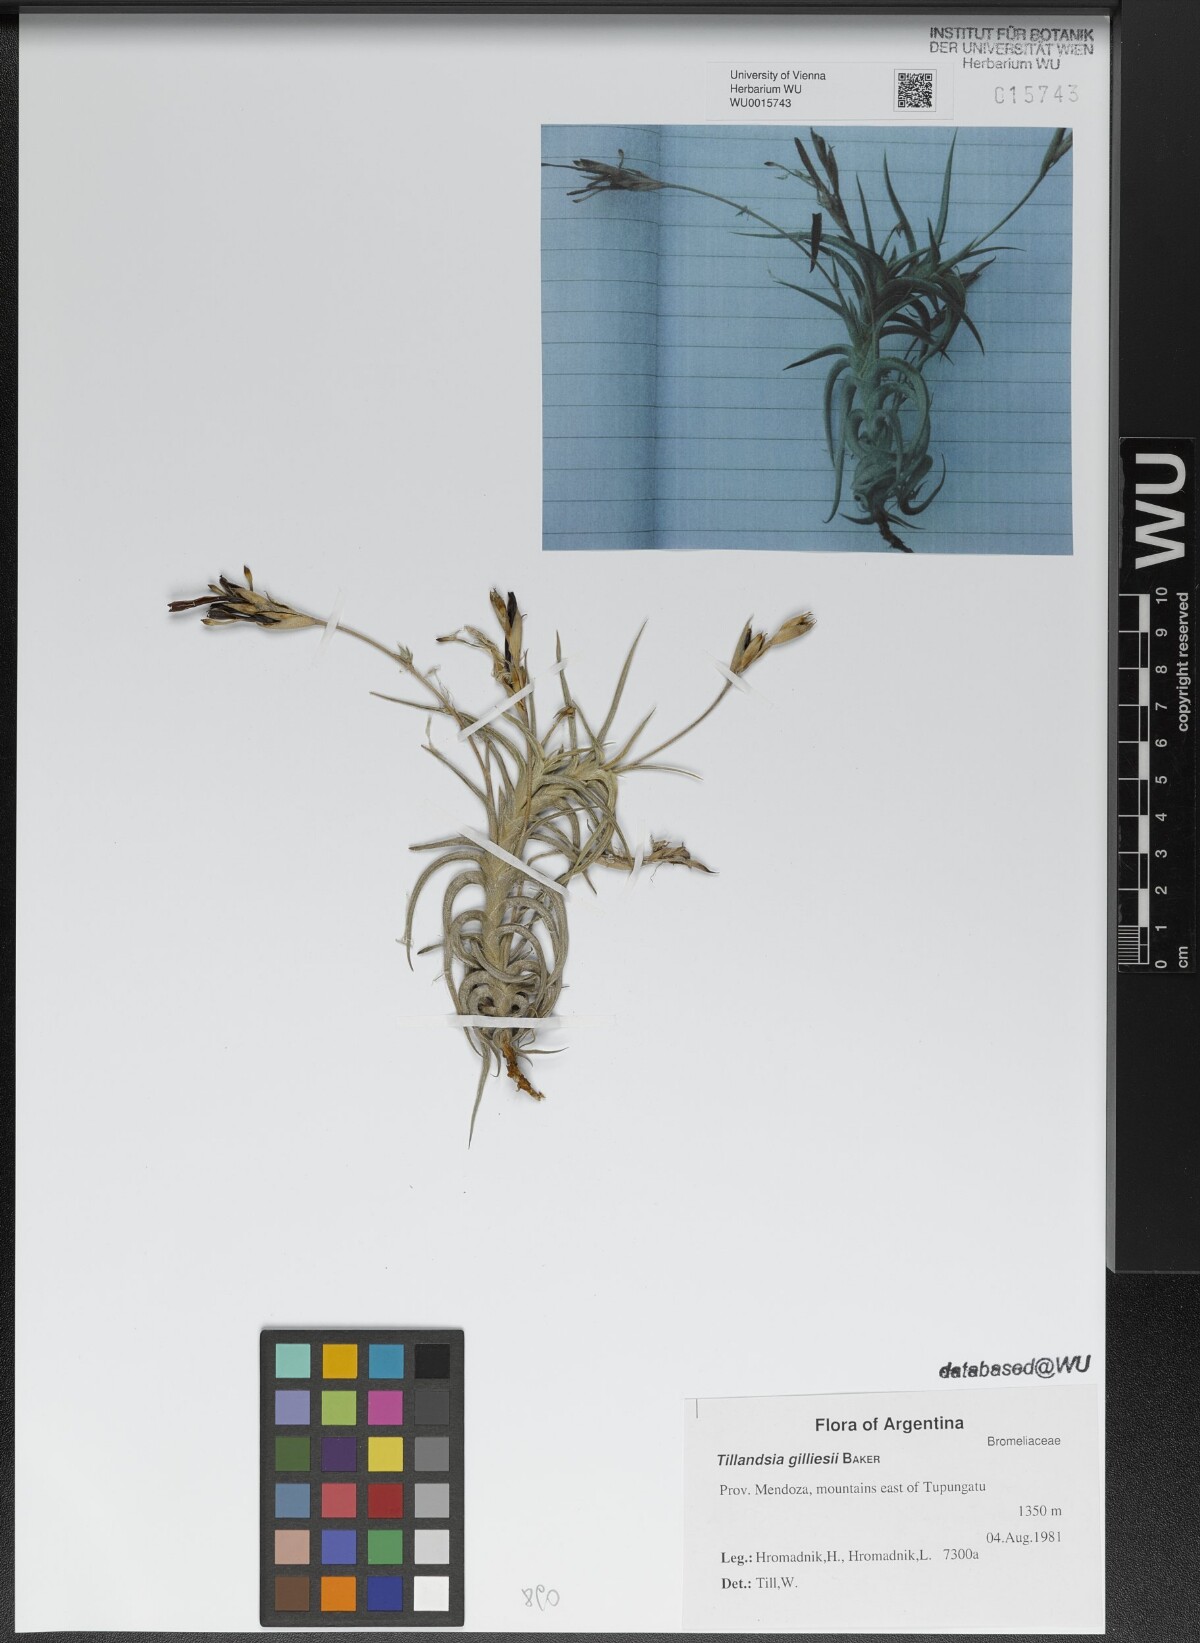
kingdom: Plantae
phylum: Tracheophyta
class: Liliopsida
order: Poales
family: Bromeliaceae
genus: Tillandsia
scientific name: Tillandsia gilliesii
